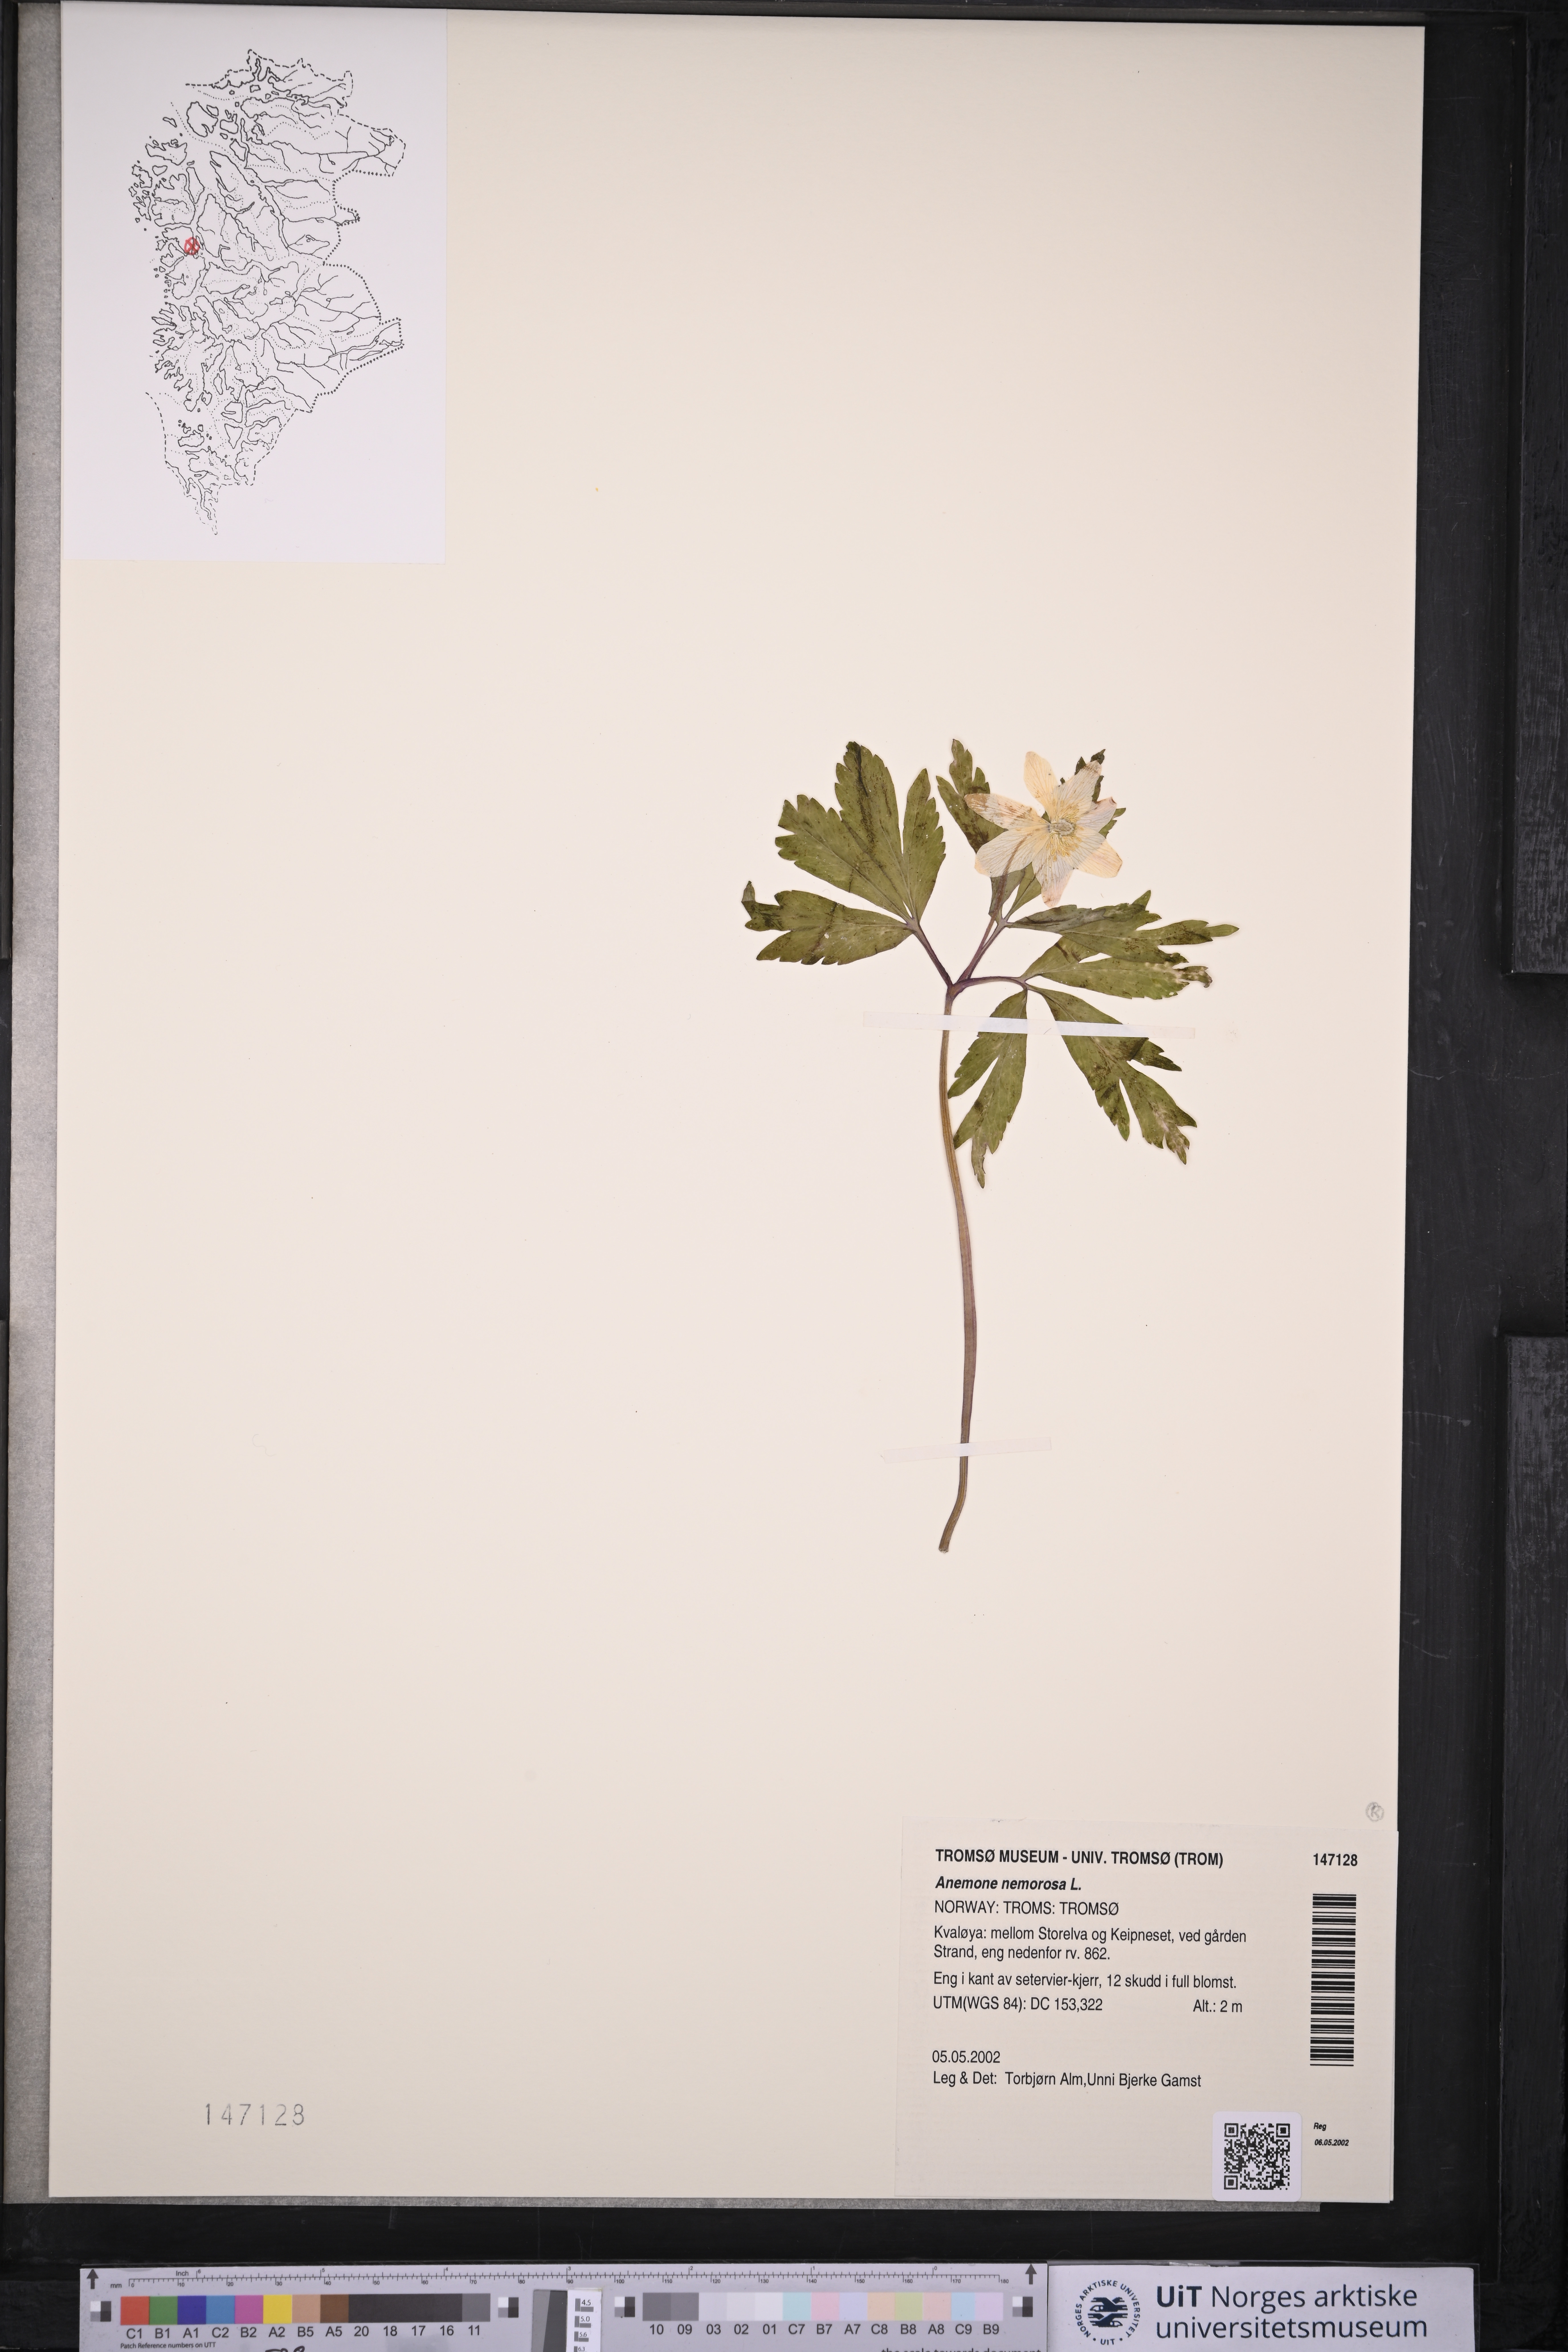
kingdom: Plantae
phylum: Tracheophyta
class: Magnoliopsida
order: Ranunculales
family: Ranunculaceae
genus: Anemone
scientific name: Anemone nemorosa
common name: Wood anemone
